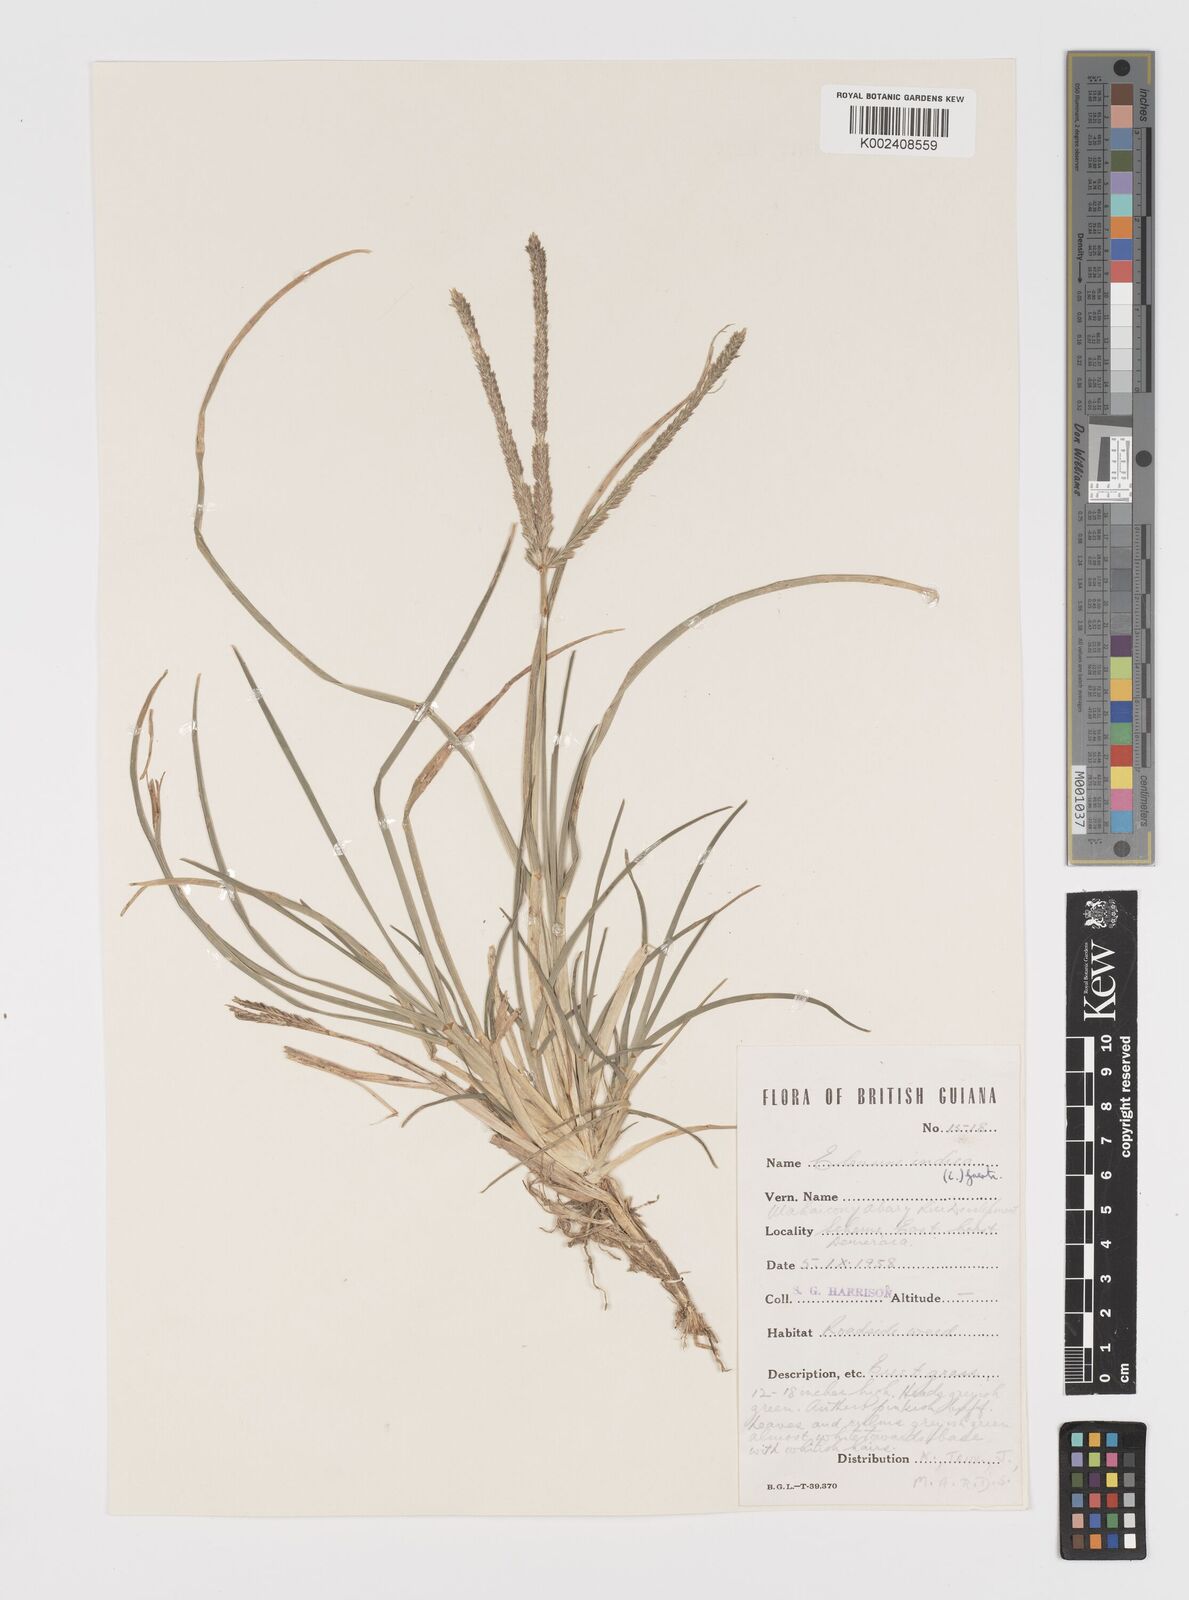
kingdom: Plantae
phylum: Tracheophyta
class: Liliopsida
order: Poales
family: Poaceae
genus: Eleusine
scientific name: Eleusine indica
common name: Yard-grass
